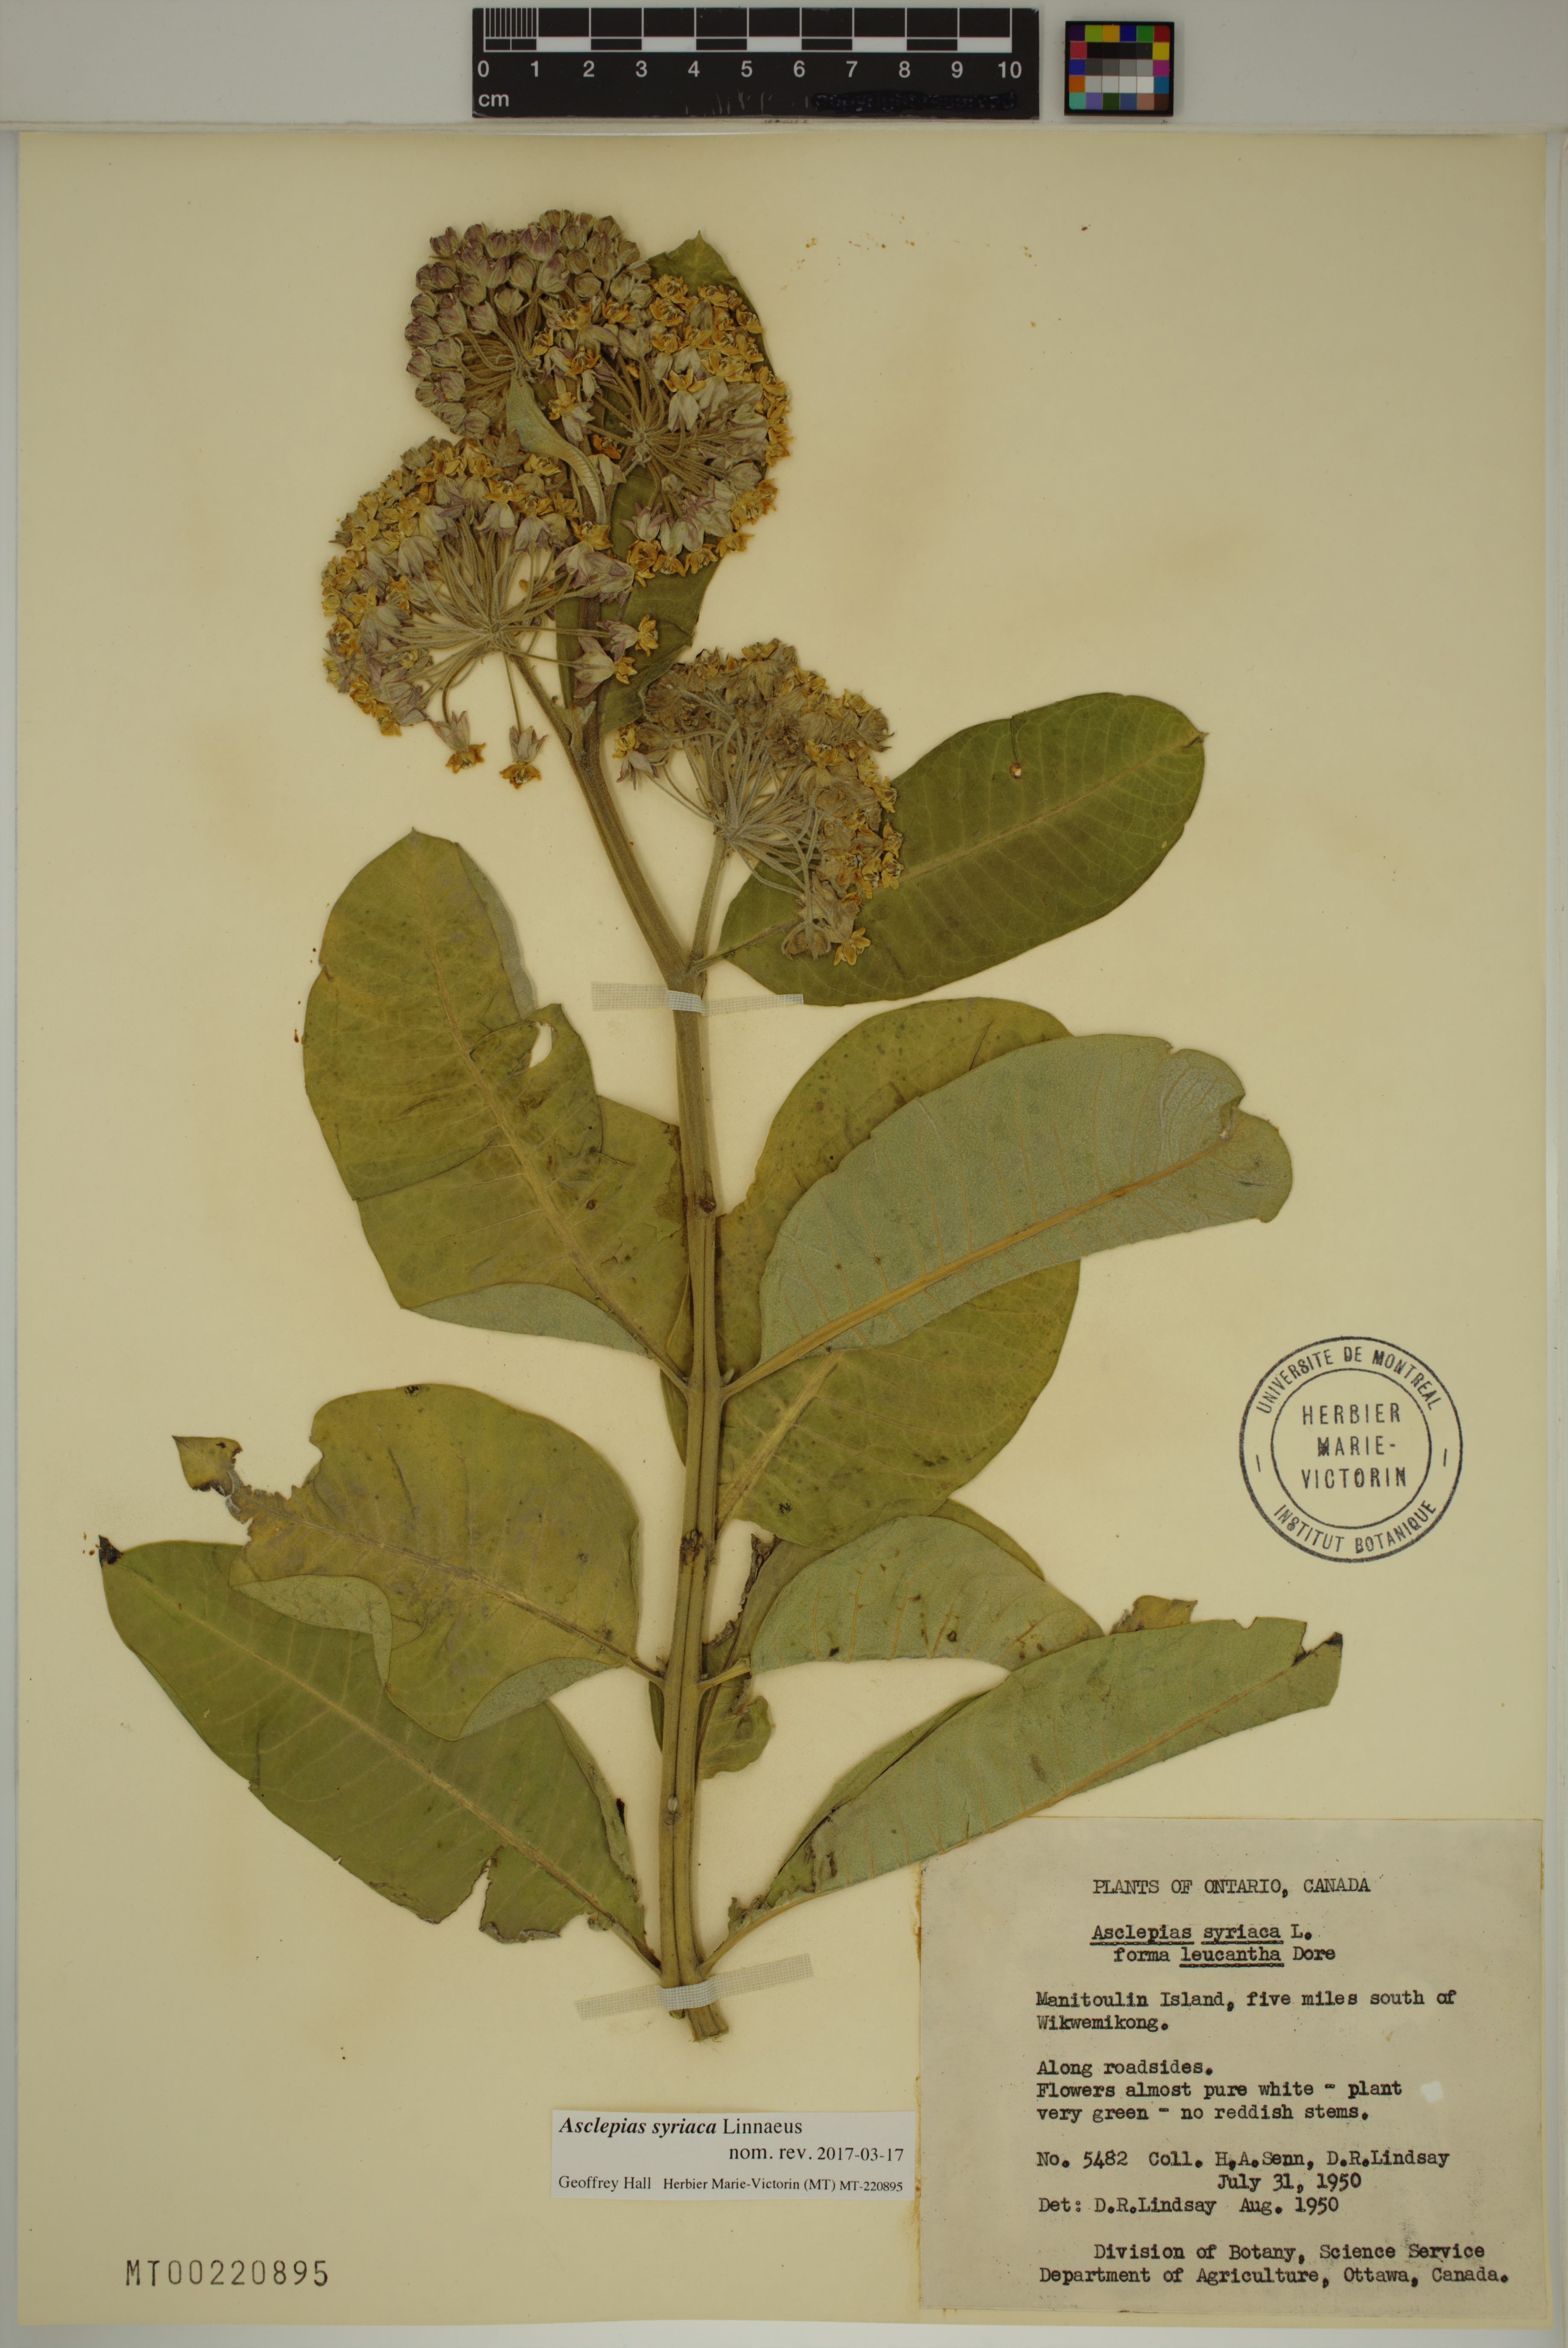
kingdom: Plantae
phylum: Tracheophyta
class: Magnoliopsida
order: Gentianales
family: Apocynaceae
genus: Asclepias
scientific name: Asclepias syriaca
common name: Common milkweed
